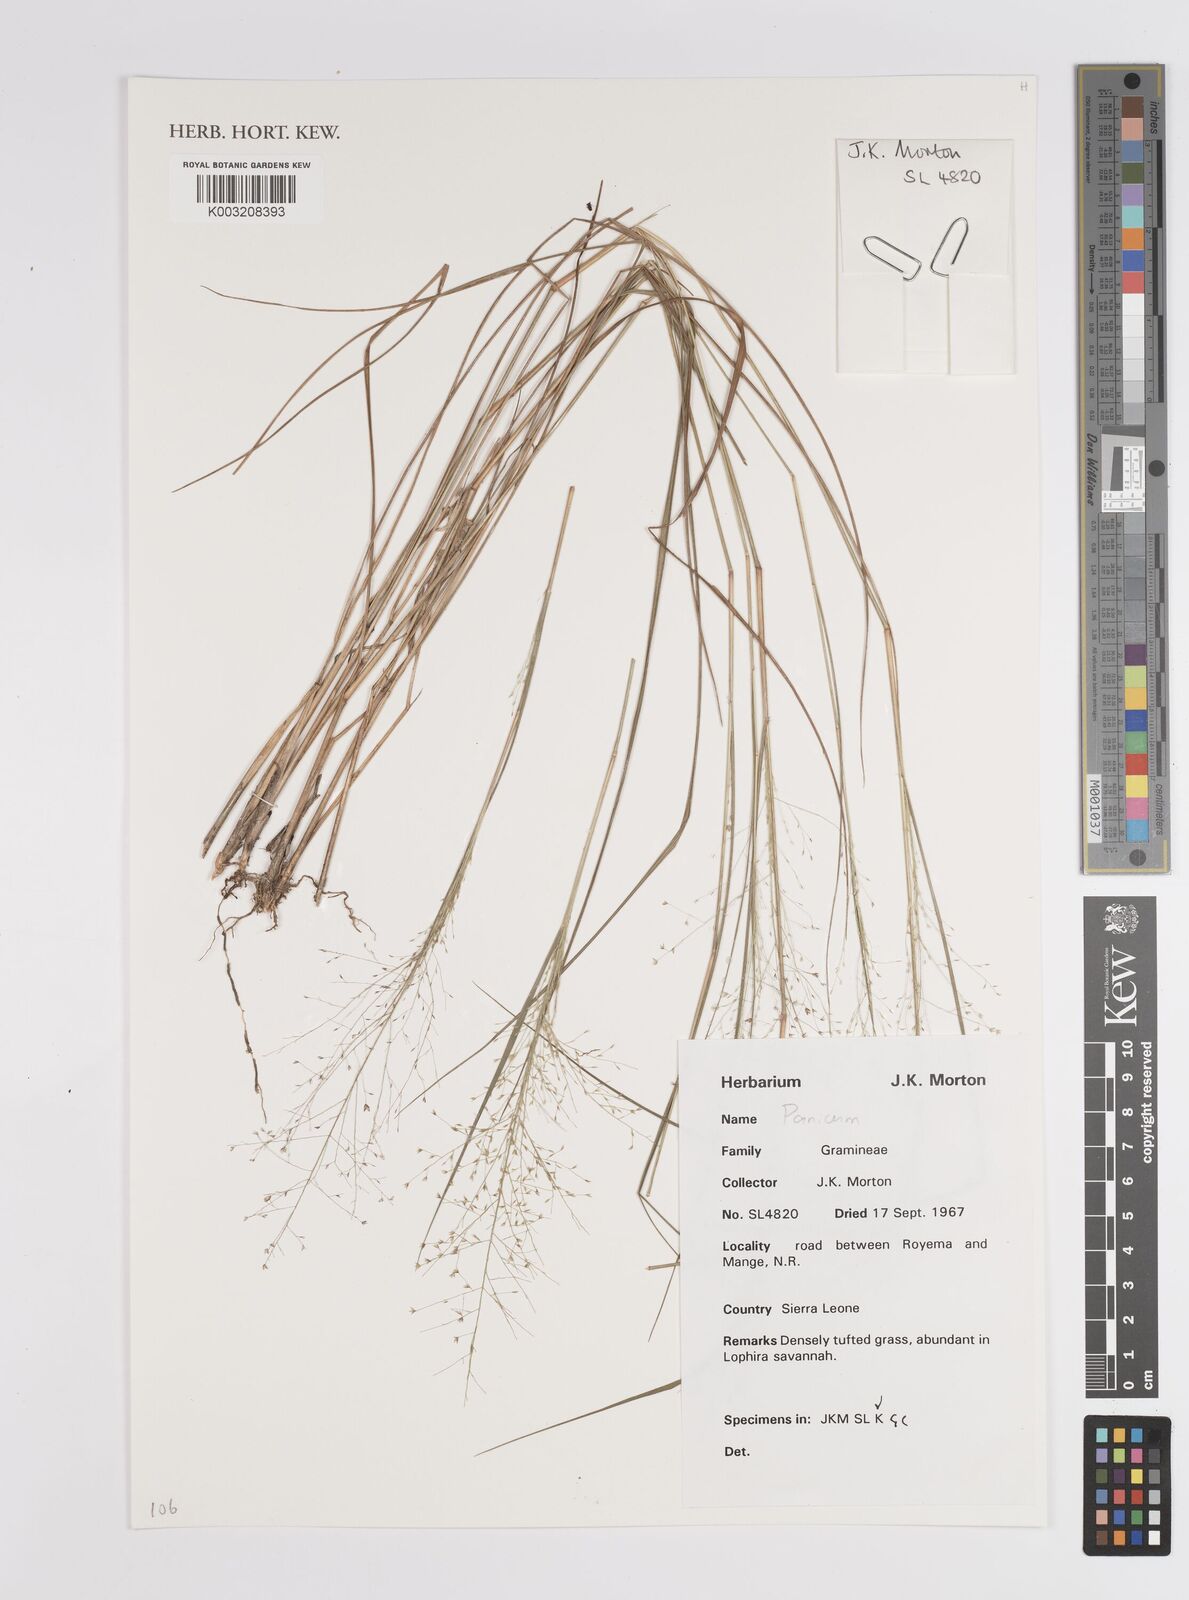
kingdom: Plantae
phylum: Tracheophyta
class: Liliopsida
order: Poales
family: Poaceae
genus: Panicum
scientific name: Panicum
